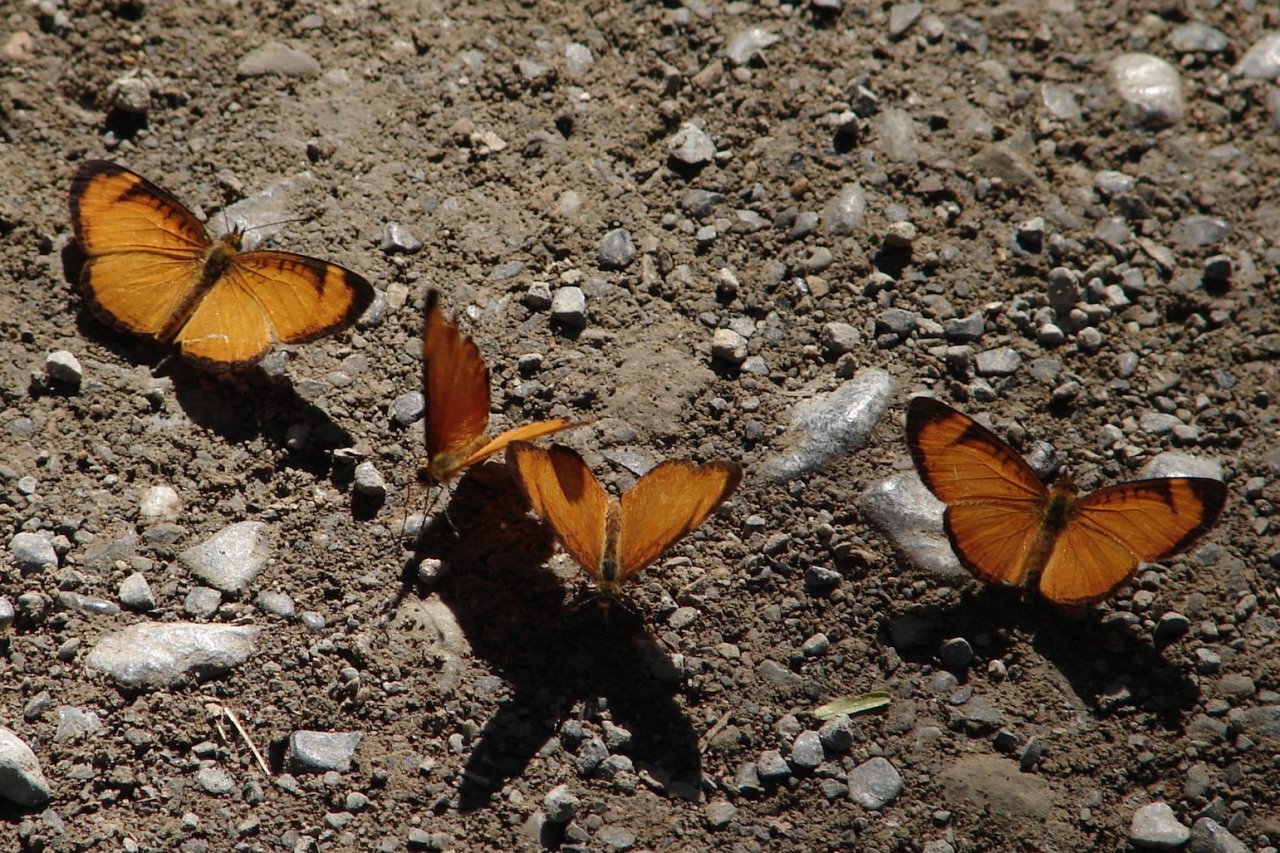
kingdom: Animalia
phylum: Arthropoda
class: Insecta
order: Lepidoptera
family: Nymphalidae
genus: Tegosa
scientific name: Tegosa anieta
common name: Black-bordered Crescent
